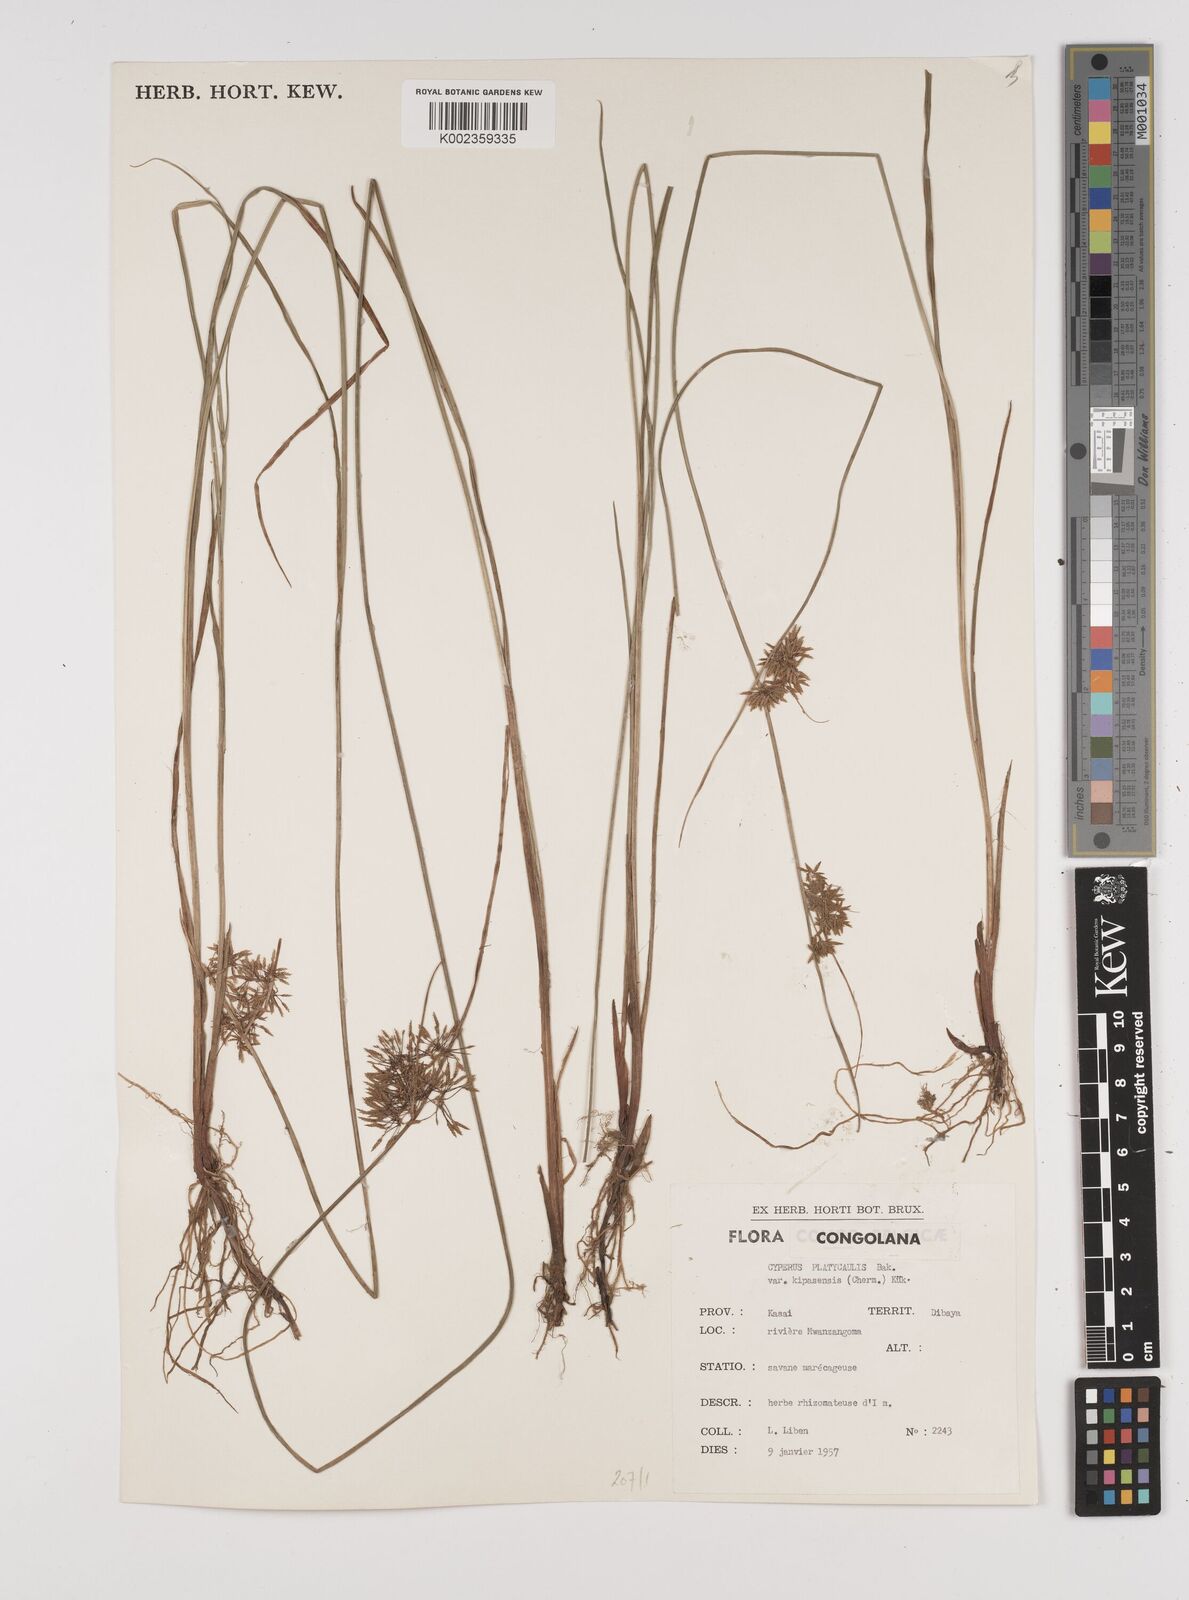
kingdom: Plantae
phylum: Tracheophyta
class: Liliopsida
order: Poales
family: Cyperaceae
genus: Cyperus
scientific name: Cyperus kipasensis
